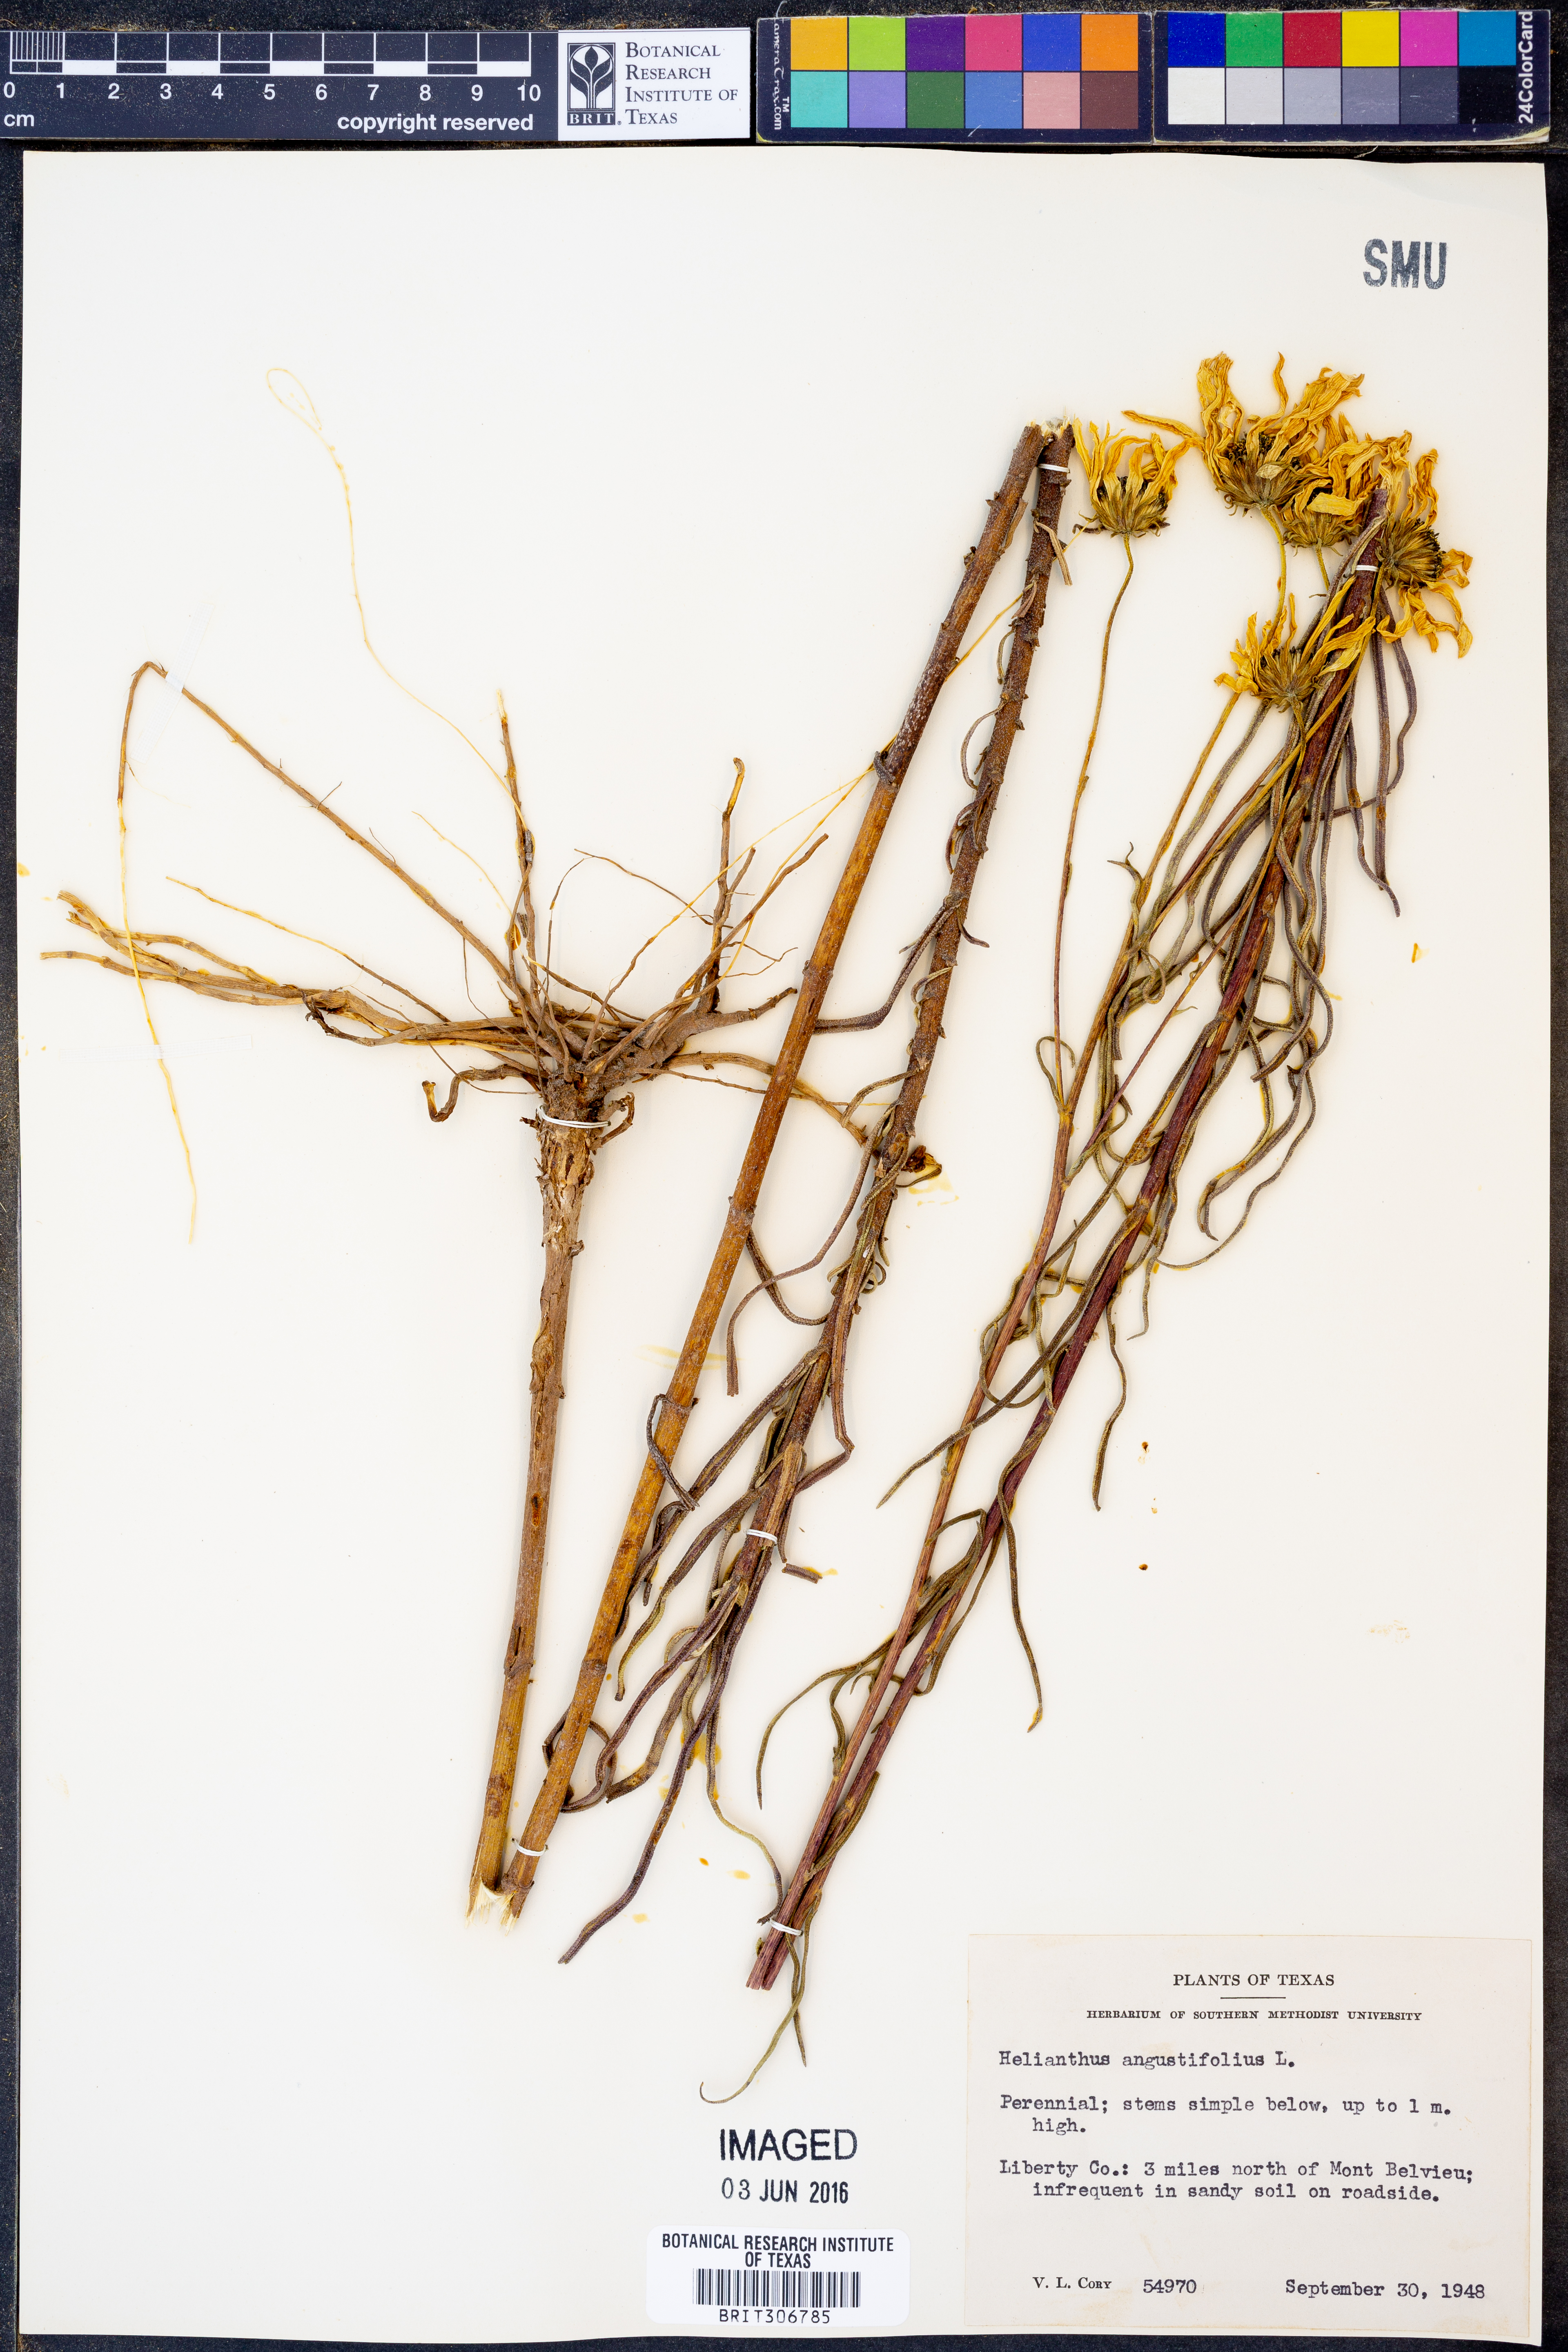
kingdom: Plantae
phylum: Tracheophyta
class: Magnoliopsida
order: Asterales
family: Asteraceae
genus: Helianthus
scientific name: Helianthus angustifolius
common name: Swamp sunflower
